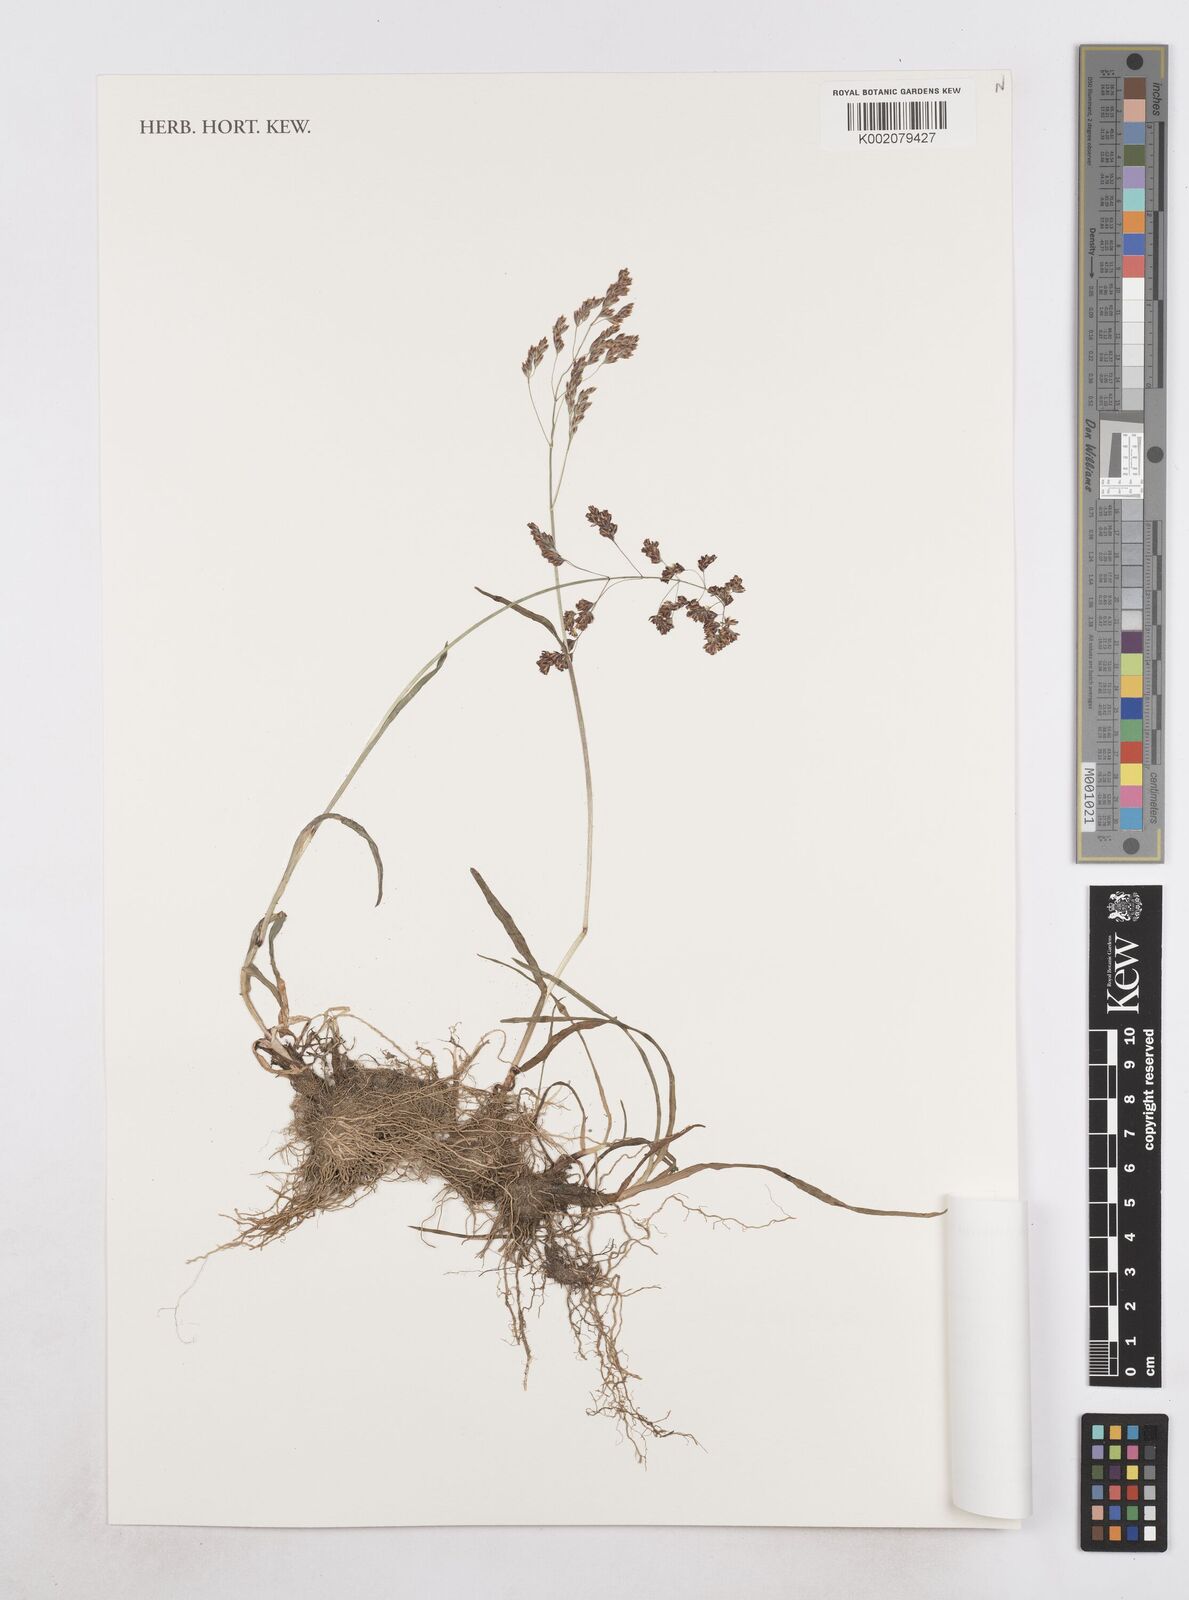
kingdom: Plantae
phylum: Tracheophyta
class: Liliopsida
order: Poales
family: Poaceae
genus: Catabrosella
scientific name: Catabrosella variegata
